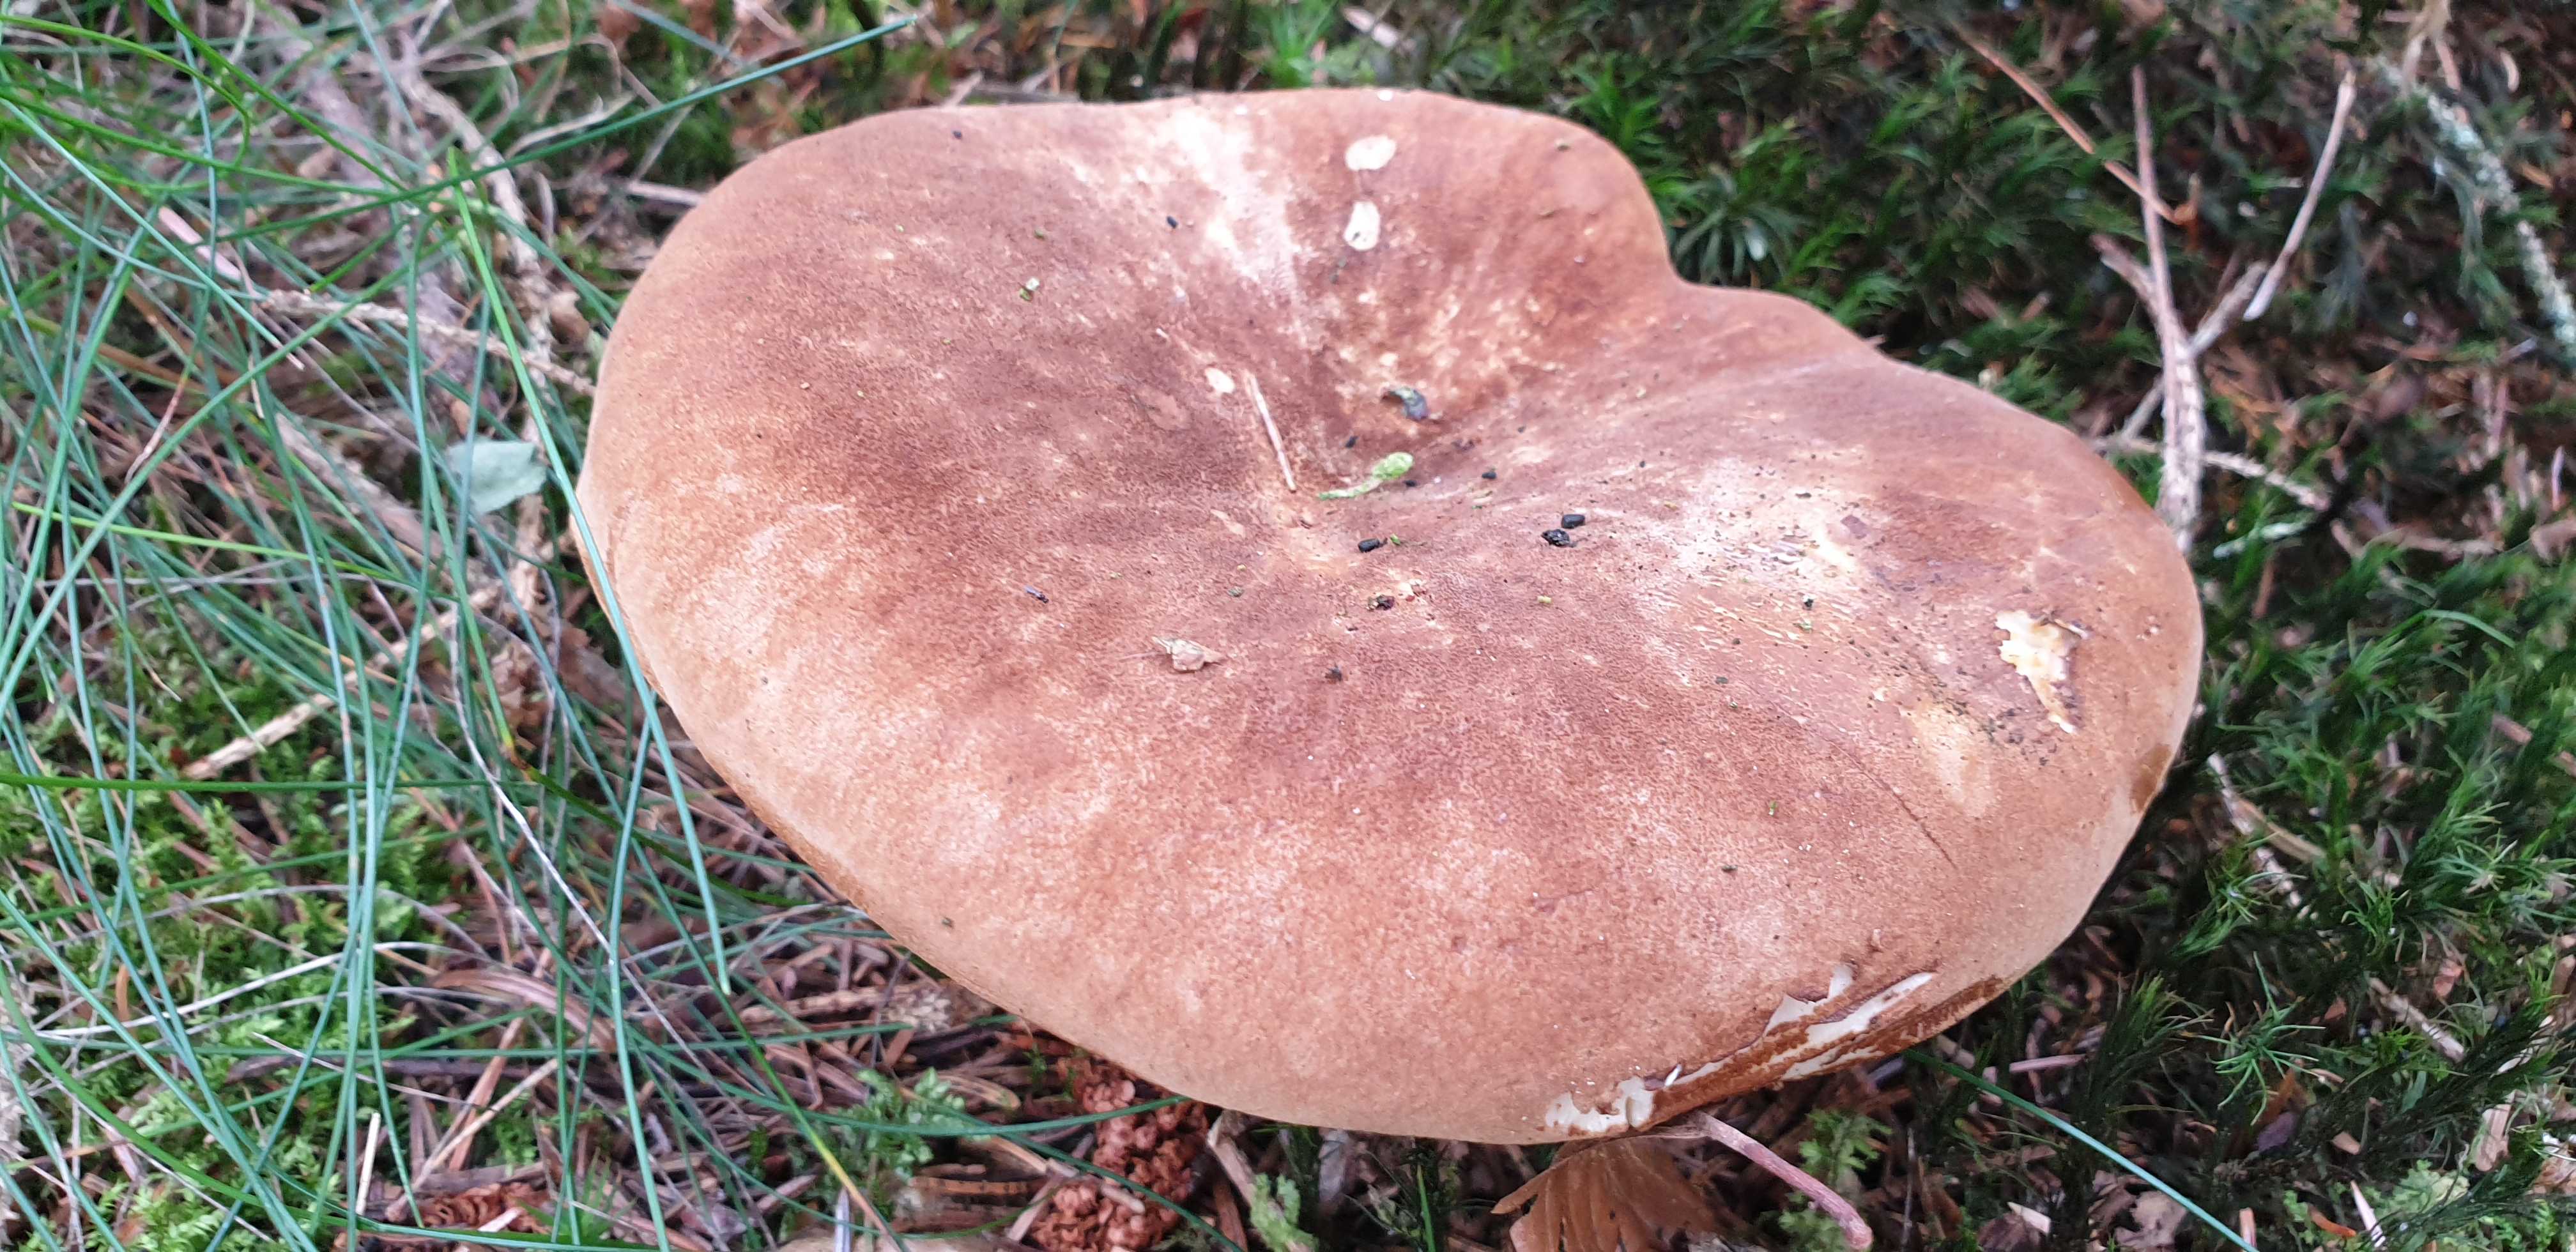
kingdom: Fungi
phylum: Basidiomycota
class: Agaricomycetes
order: Boletales
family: Tapinellaceae
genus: Tapinella
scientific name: Tapinella atrotomentosa
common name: sortfiltet viftesvamp
